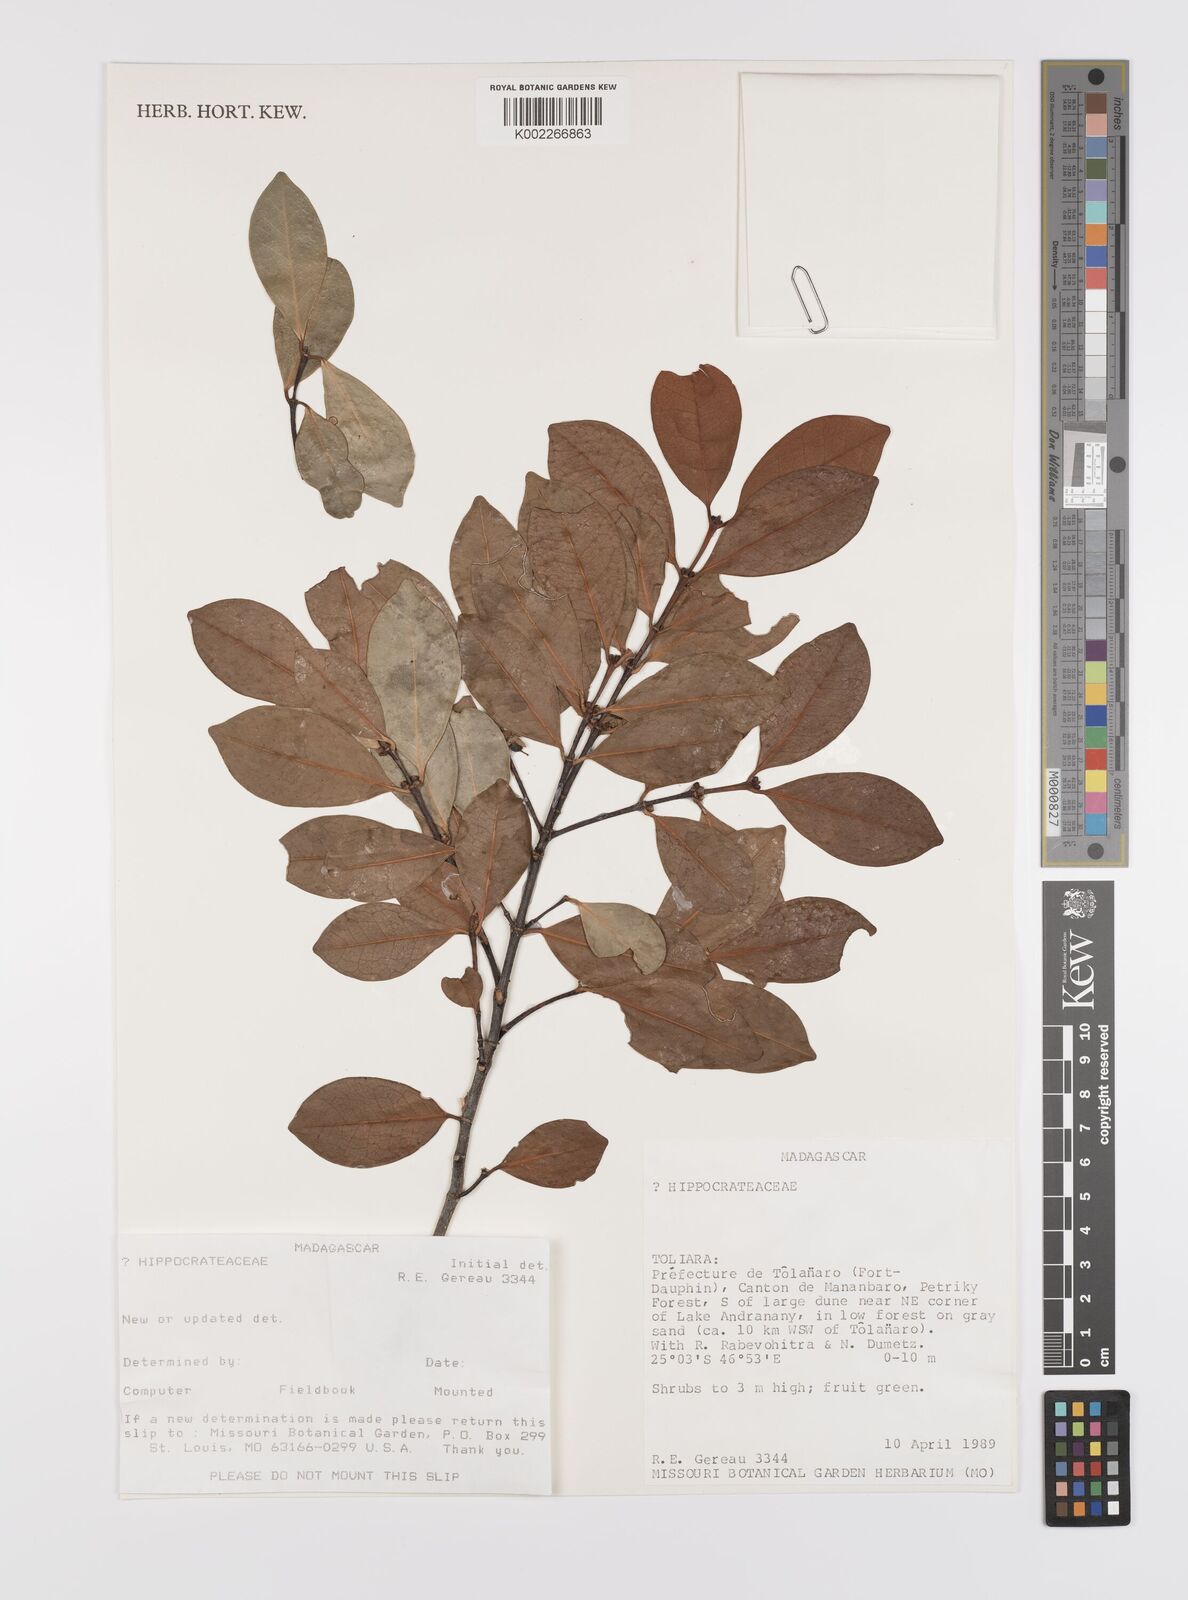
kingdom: Plantae
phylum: Tracheophyta
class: Magnoliopsida
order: Celastrales
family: Celastraceae
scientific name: Celastraceae
